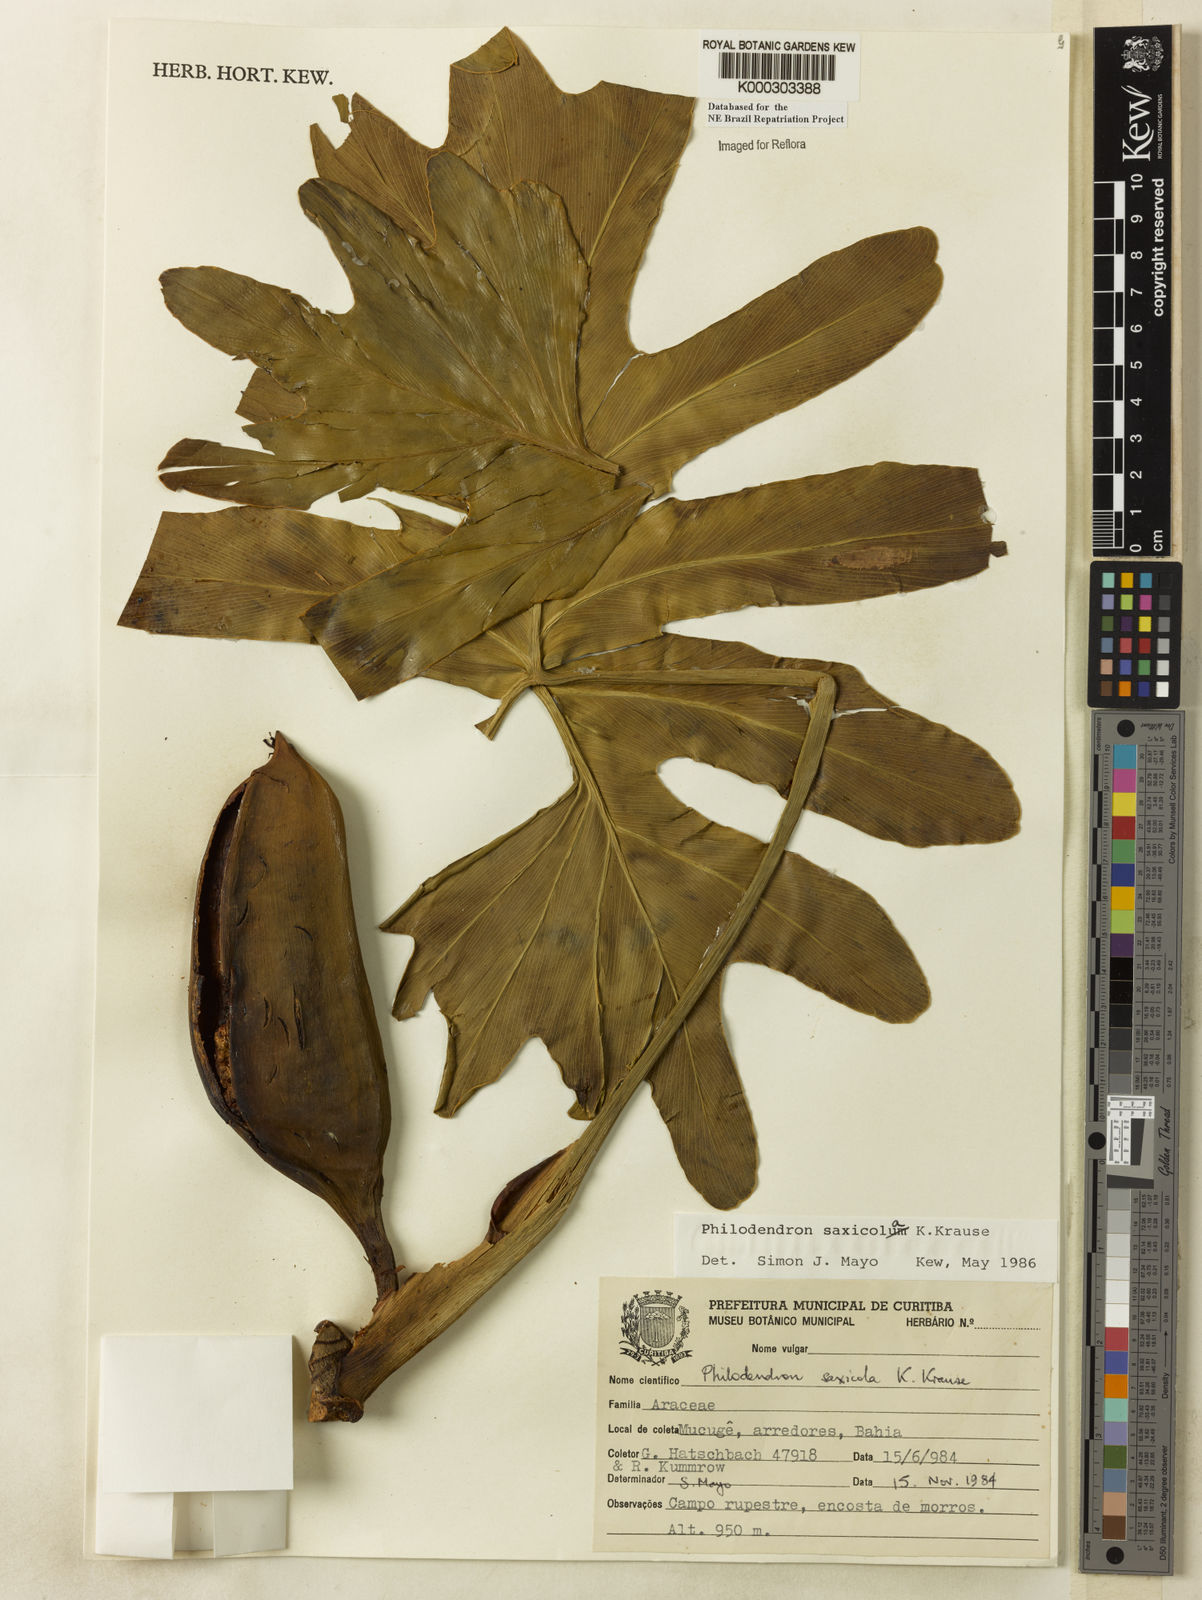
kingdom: Plantae
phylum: Tracheophyta
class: Liliopsida
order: Alismatales
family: Araceae
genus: Thaumatophyllum
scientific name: Thaumatophyllum saxicola
